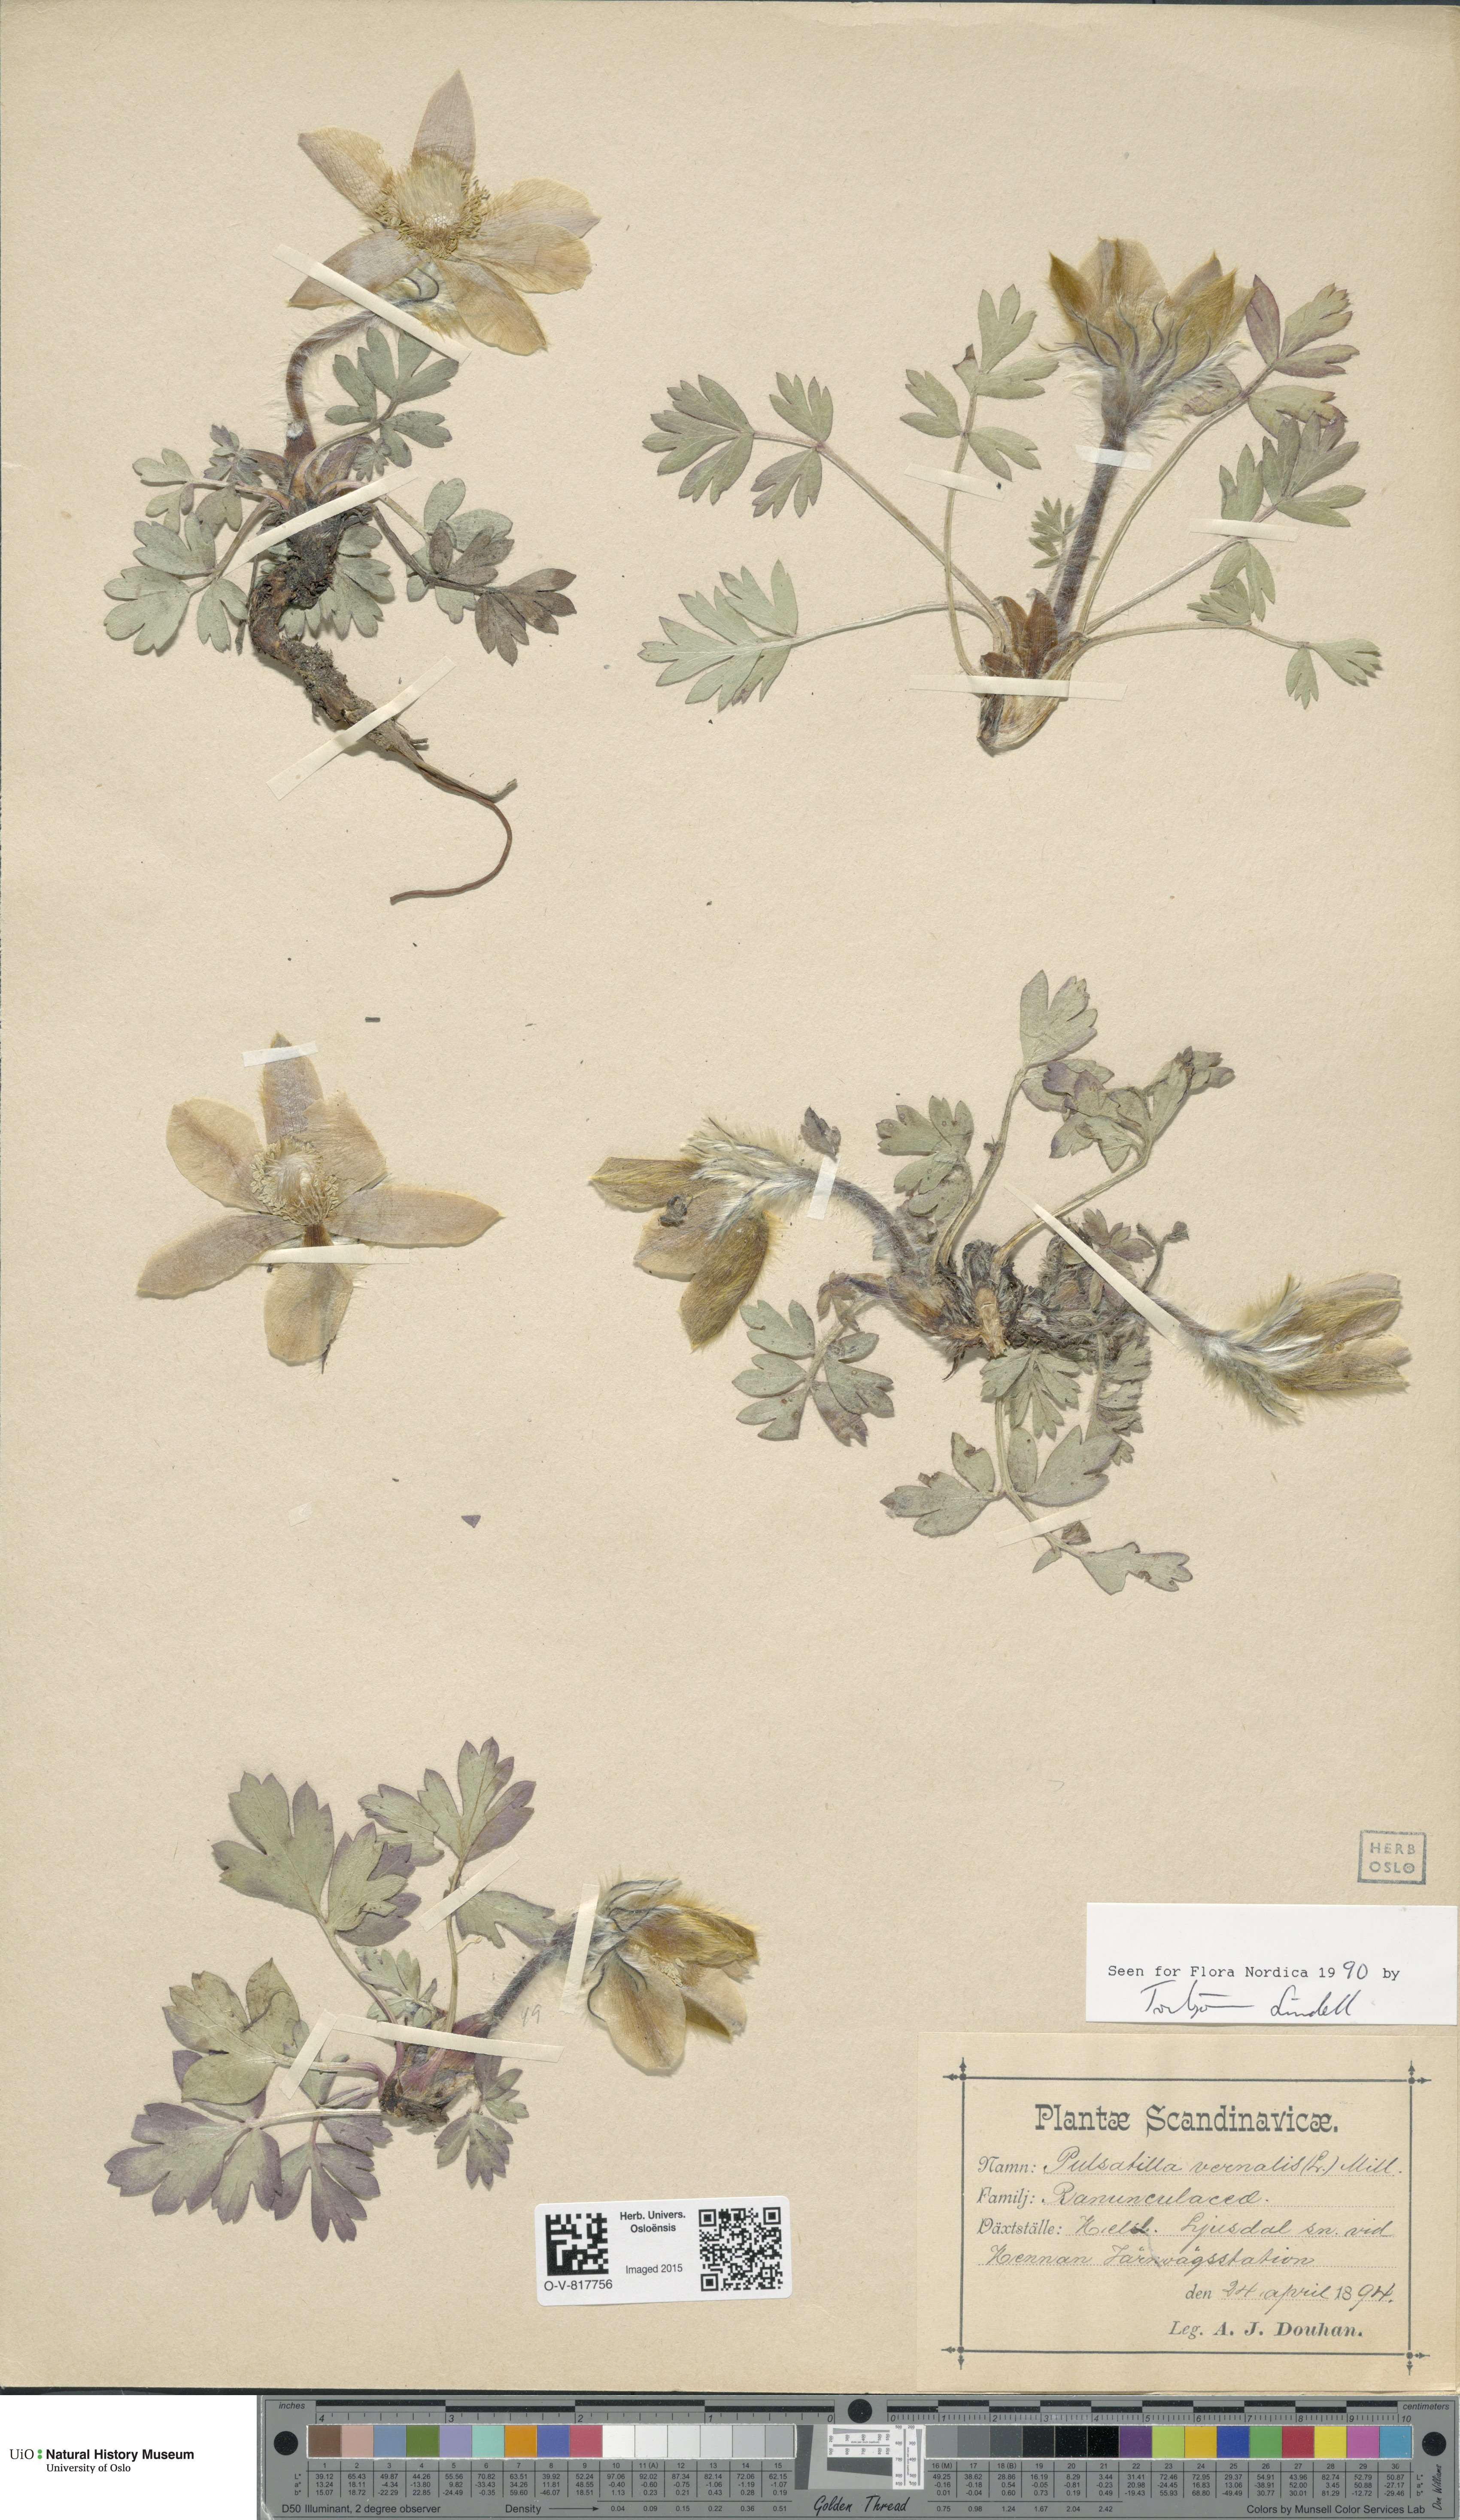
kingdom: Plantae
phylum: Tracheophyta
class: Magnoliopsida
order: Ranunculales
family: Ranunculaceae
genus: Pulsatilla
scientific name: Pulsatilla vernalis
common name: Spring pasque flower
